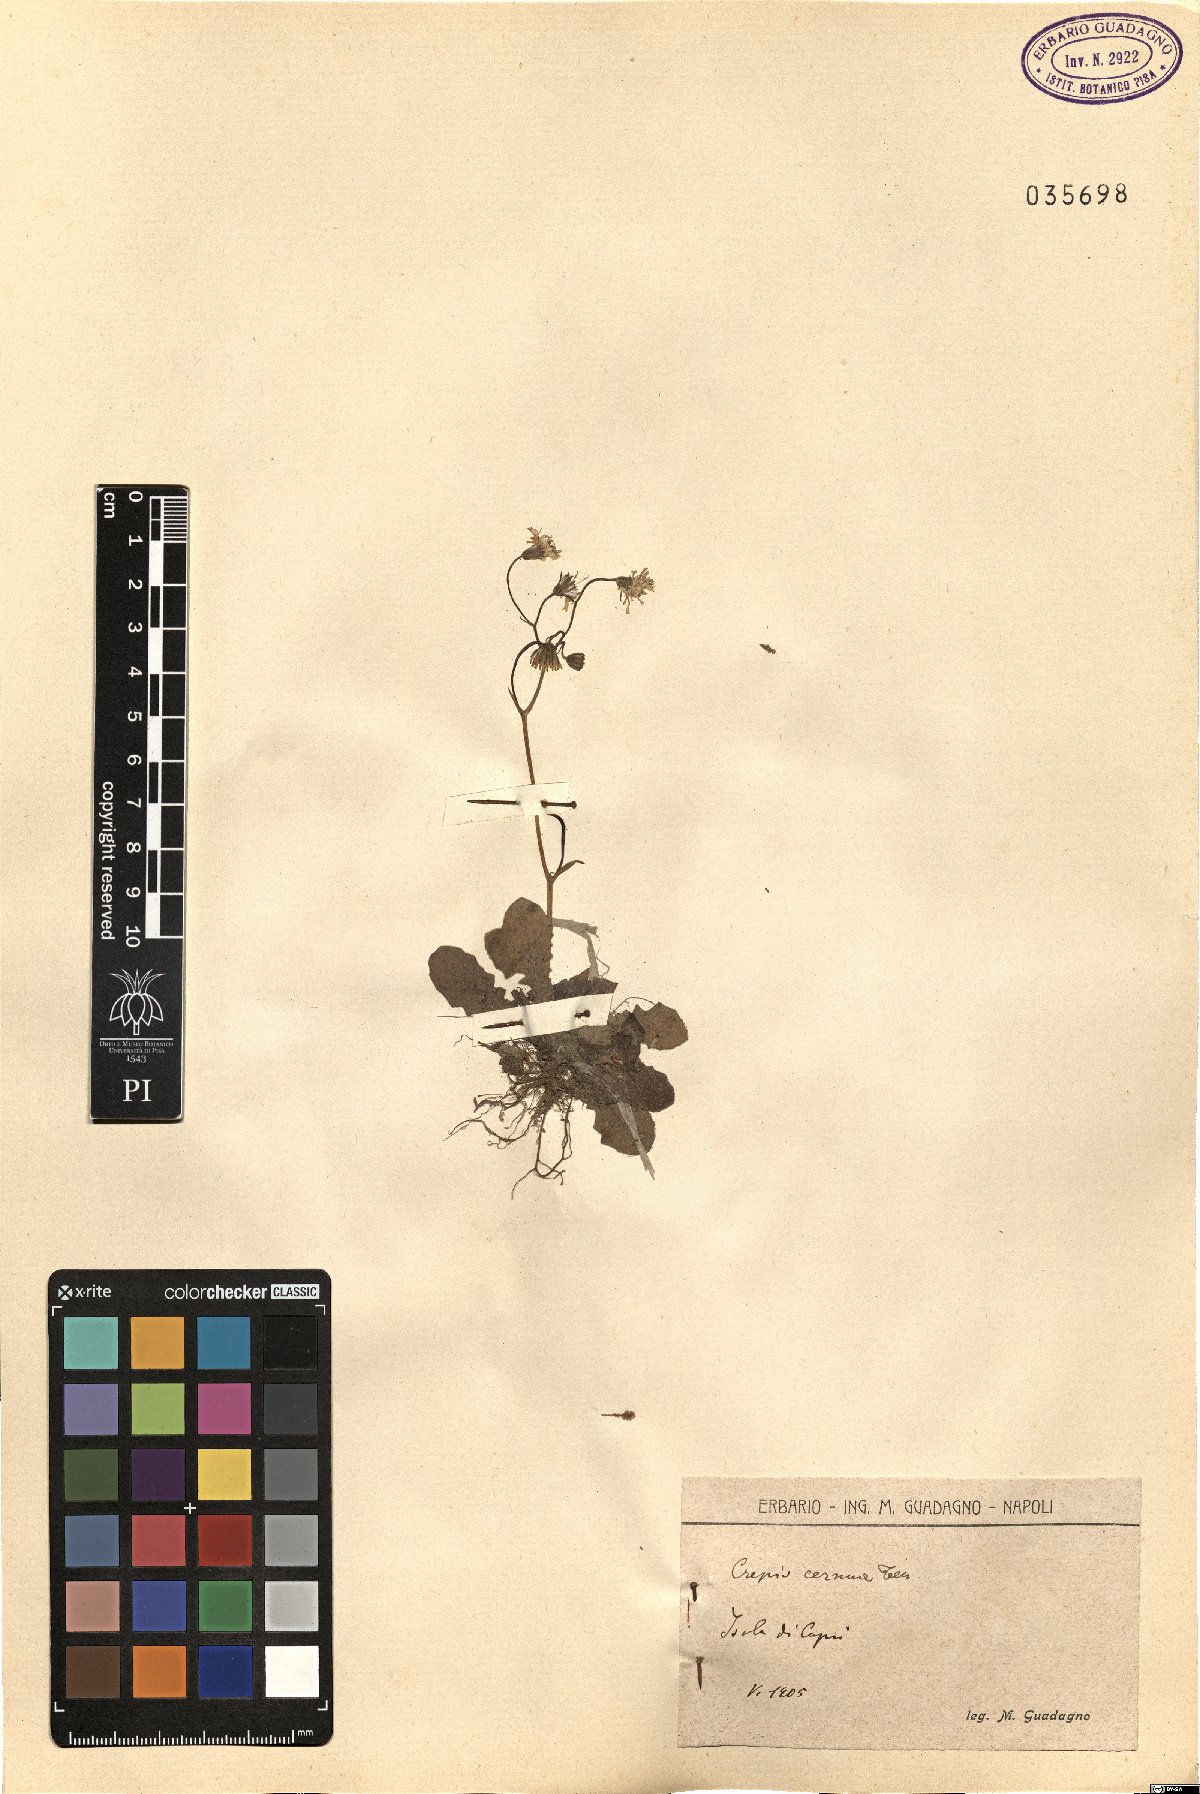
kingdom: Plantae
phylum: Tracheophyta
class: Magnoliopsida
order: Asterales
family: Asteraceae
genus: Crepis
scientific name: Crepis neglecta
